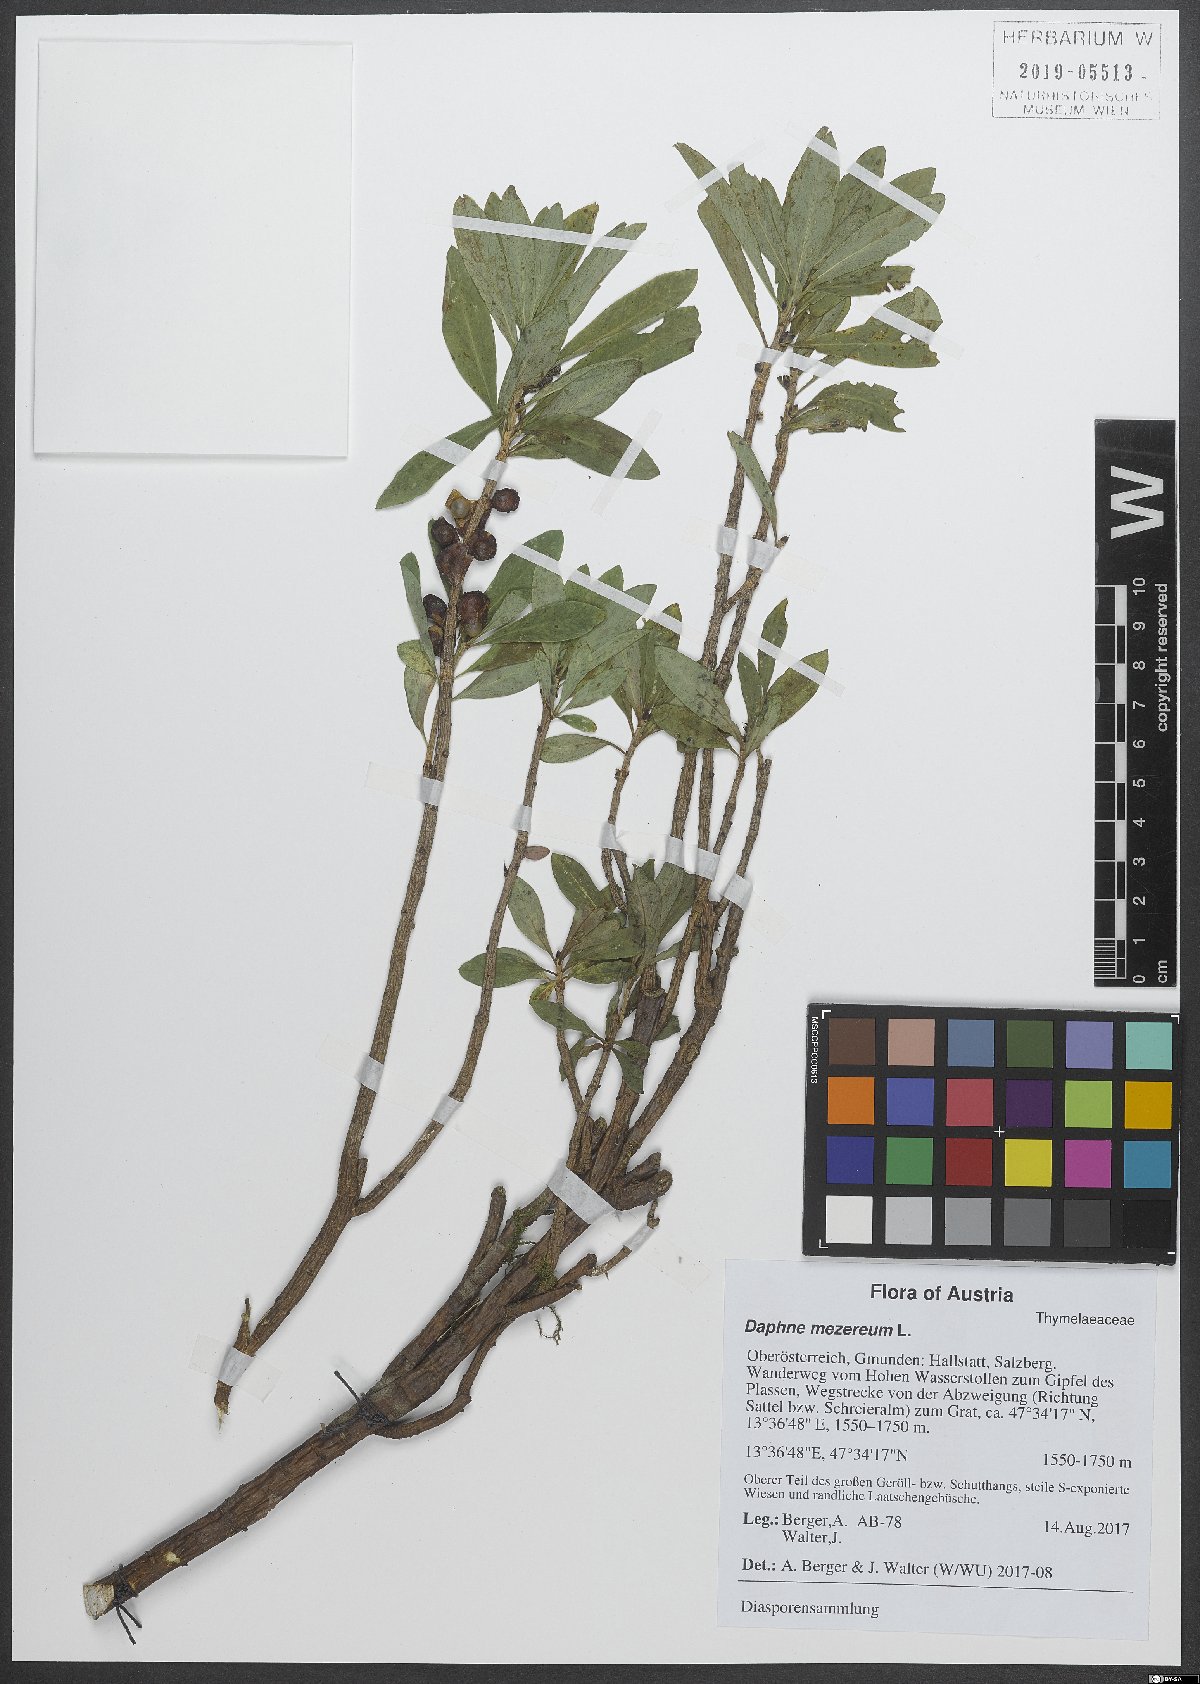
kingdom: Plantae
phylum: Tracheophyta
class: Magnoliopsida
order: Malvales
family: Thymelaeaceae
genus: Daphne
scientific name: Daphne mezereum
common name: Mezereon
